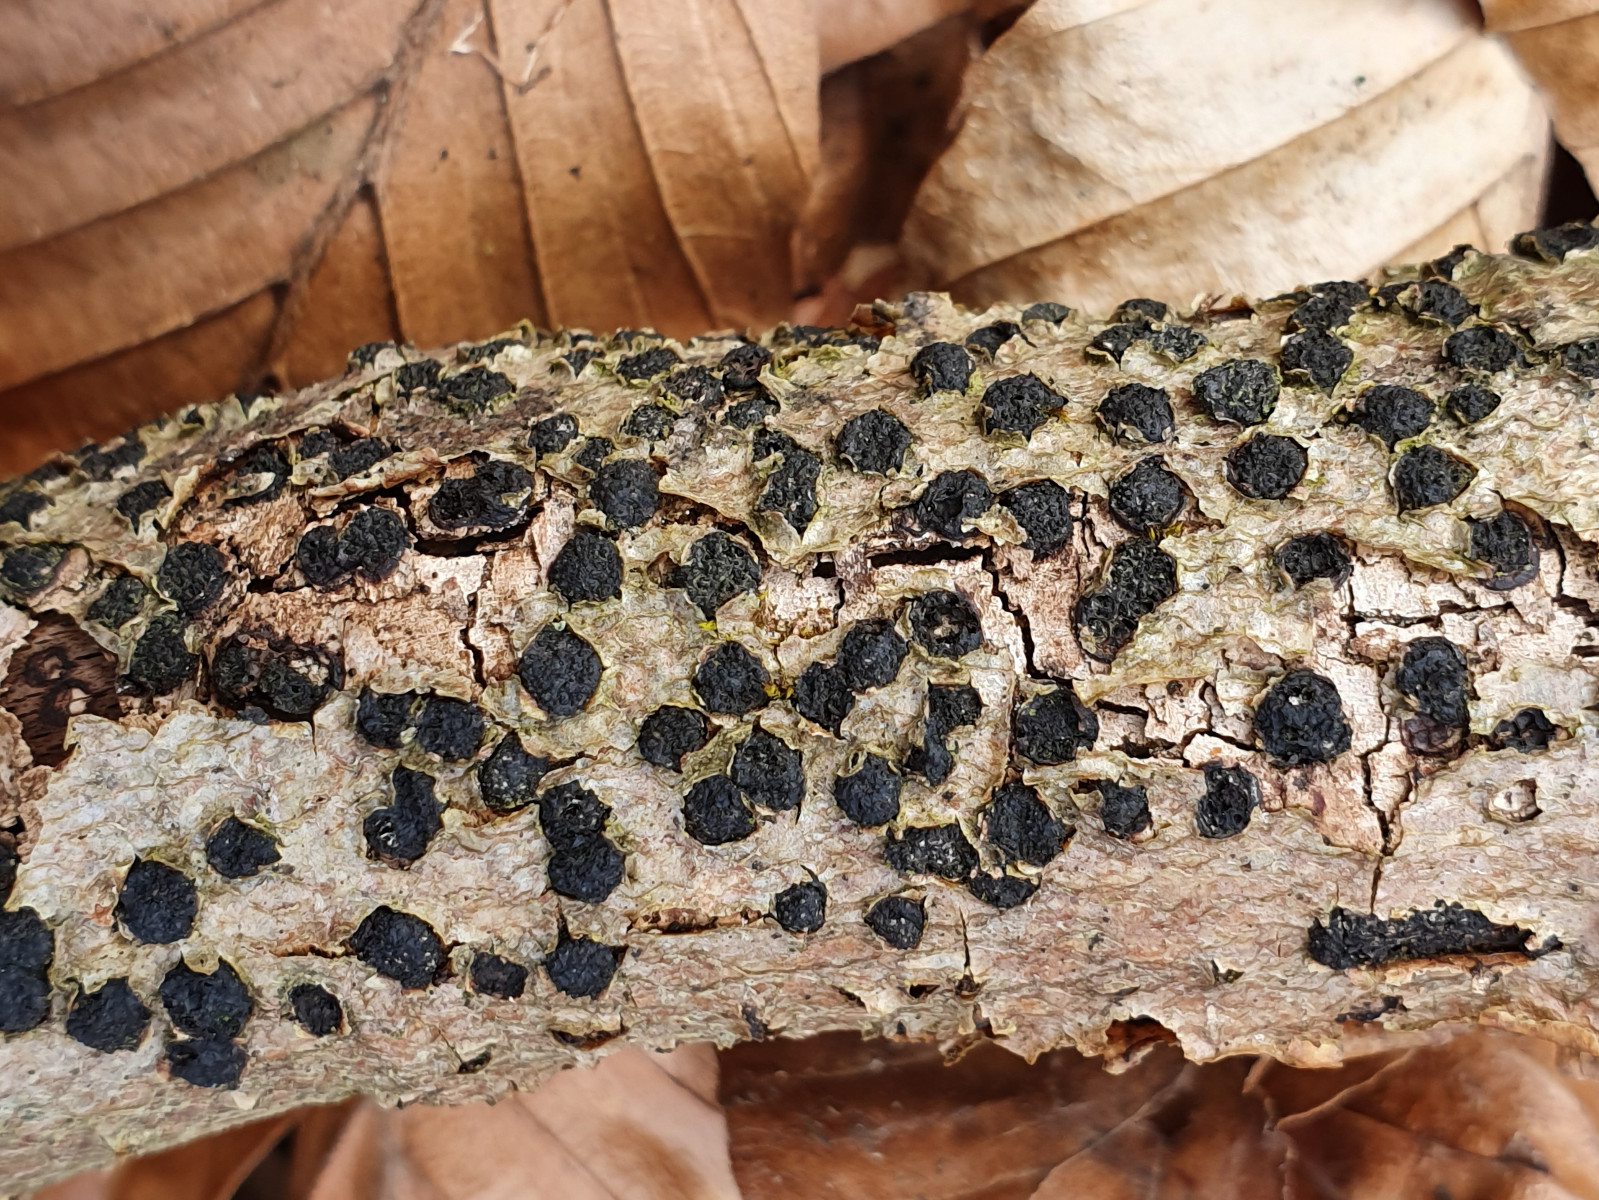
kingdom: Fungi
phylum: Ascomycota
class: Sordariomycetes
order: Xylariales
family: Diatrypaceae
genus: Diatrype
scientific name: Diatrype disciformis
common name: kant-kulskorpe
